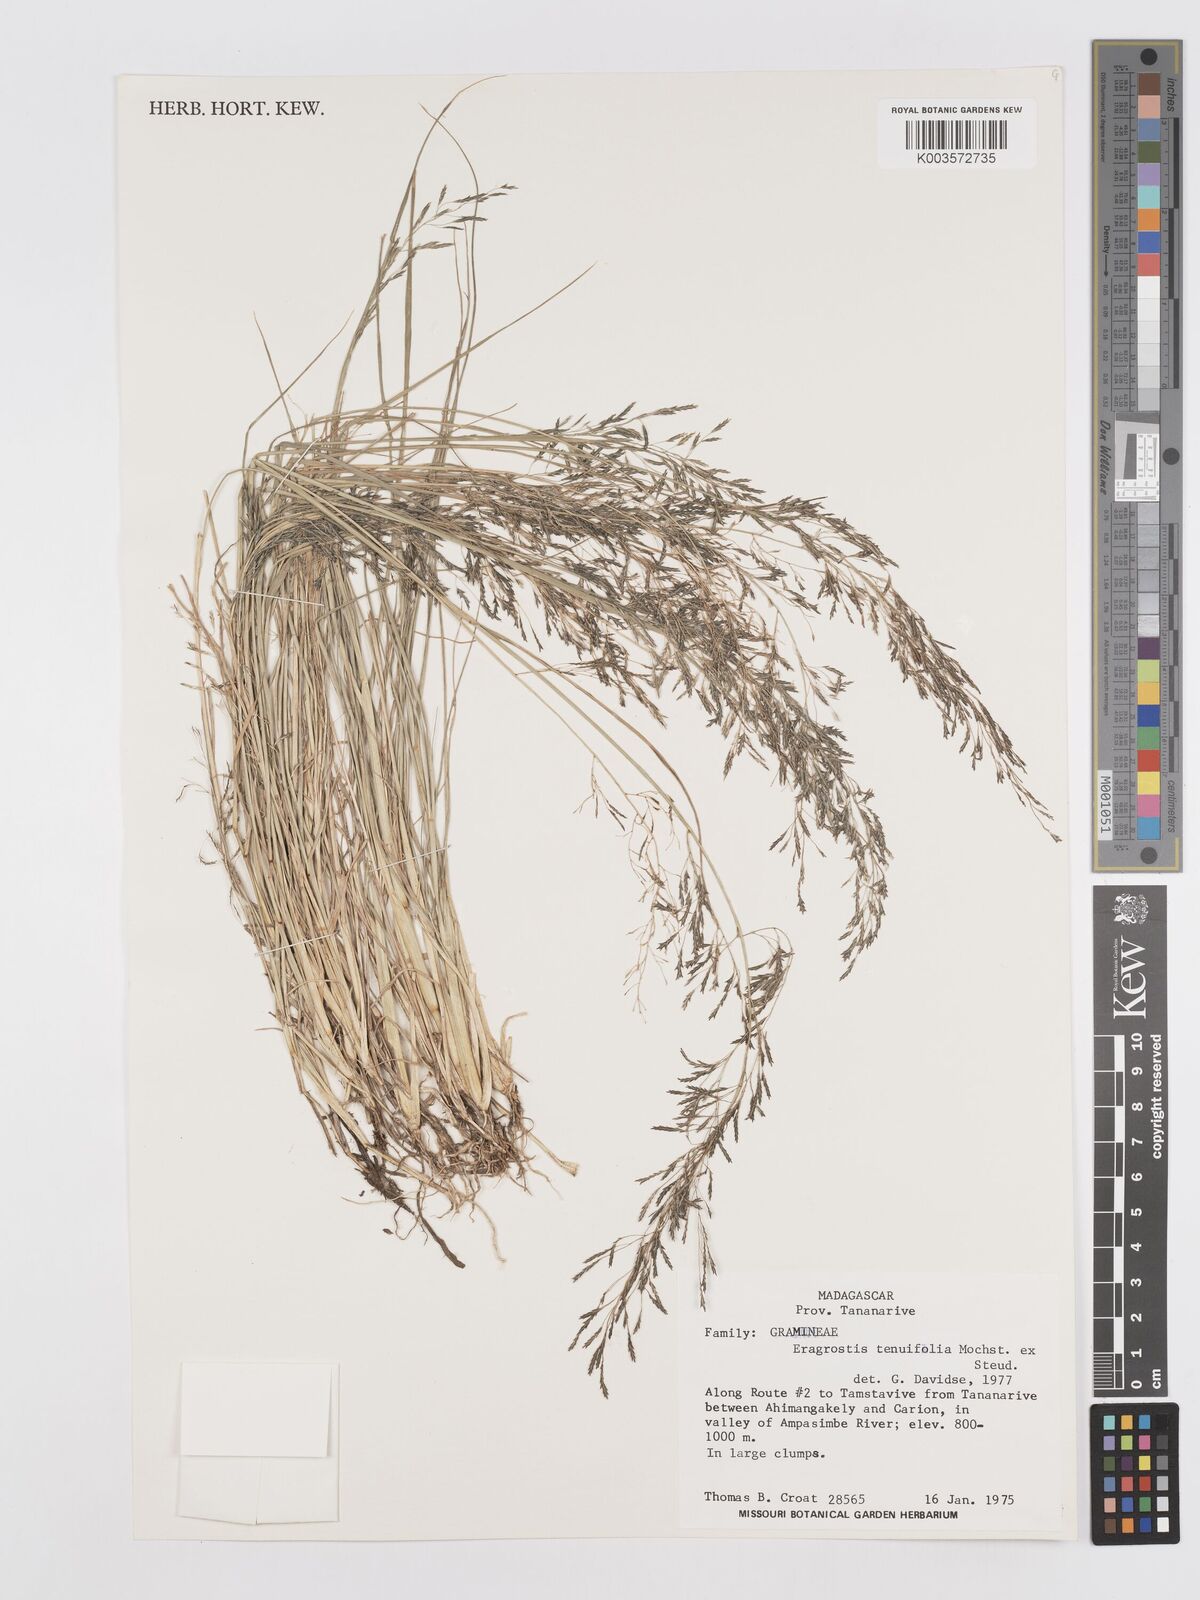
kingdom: Plantae
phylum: Tracheophyta
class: Liliopsida
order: Poales
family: Poaceae
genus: Eragrostis
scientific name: Eragrostis tenuifolia
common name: Elastic grass
